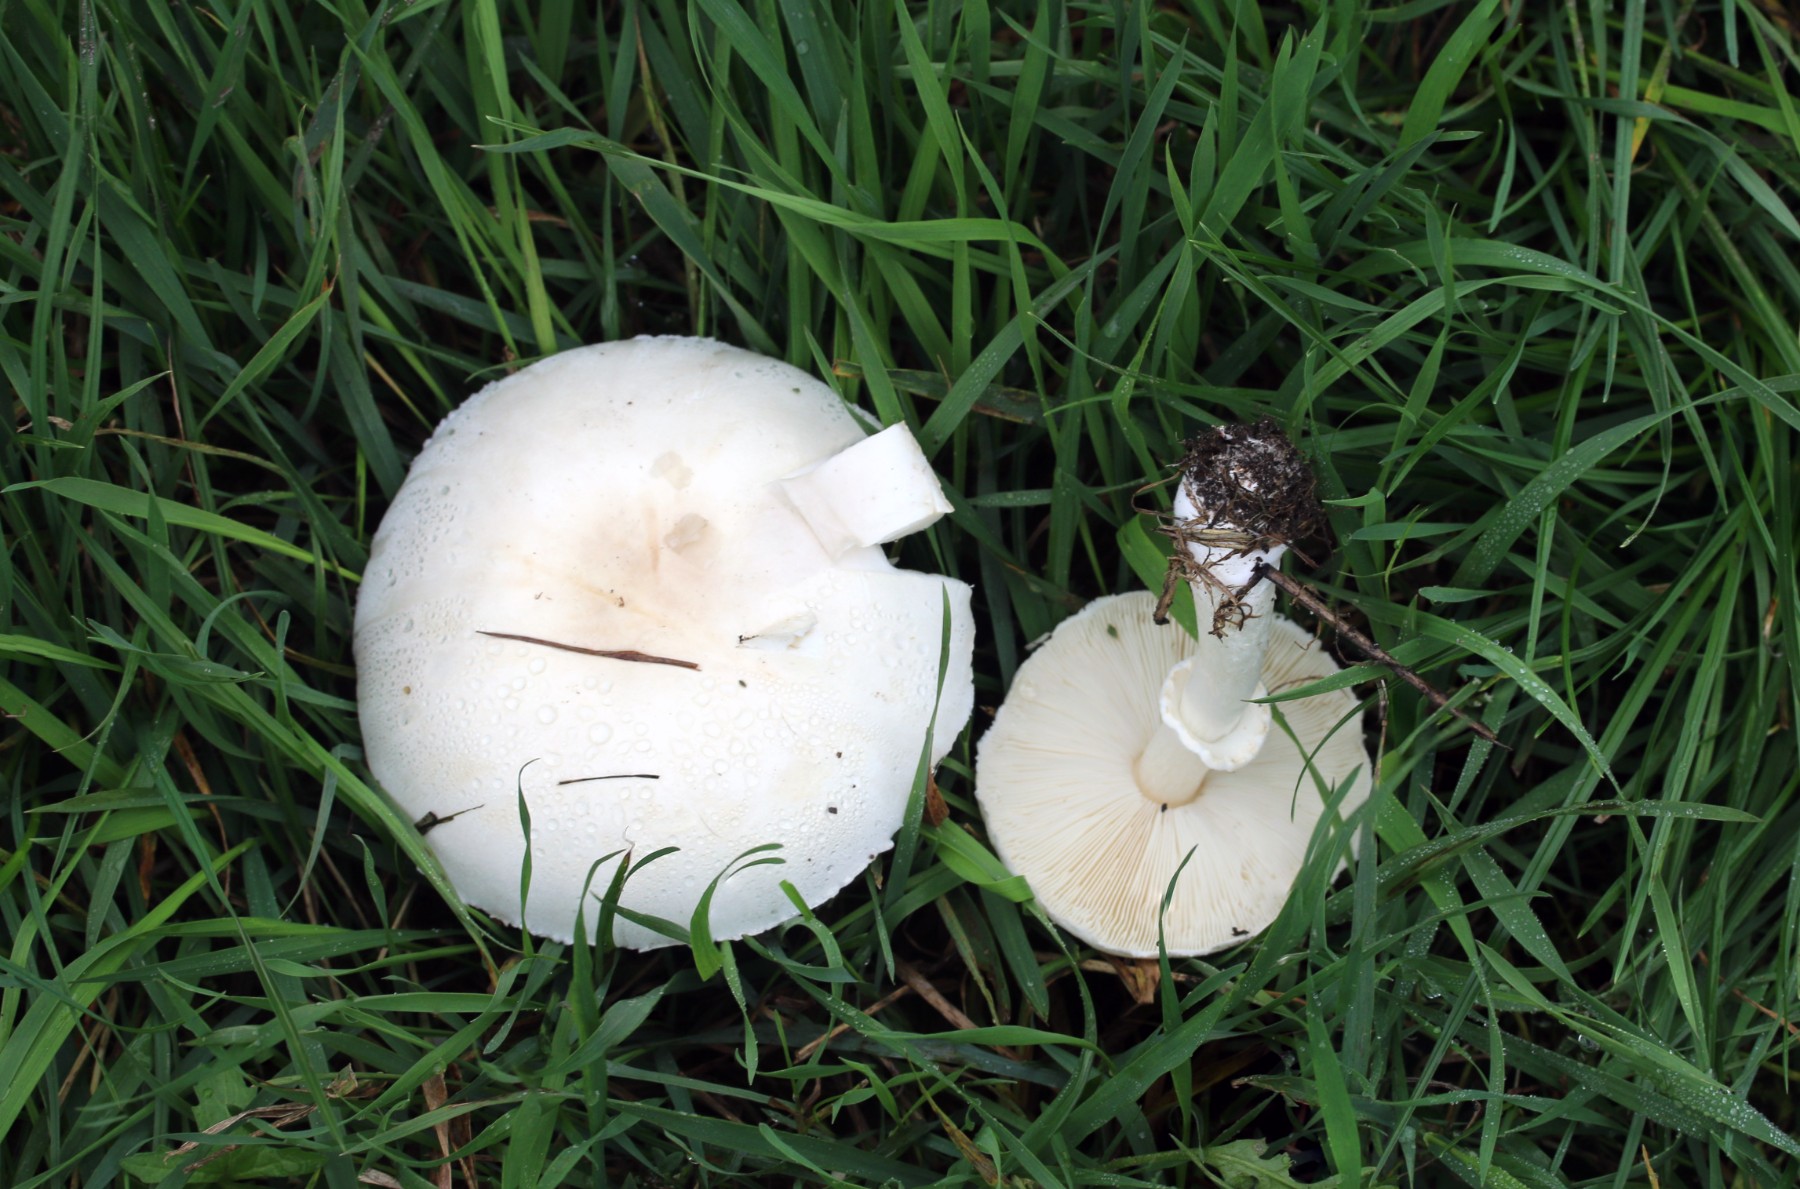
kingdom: Fungi
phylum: Basidiomycota
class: Agaricomycetes
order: Agaricales
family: Agaricaceae
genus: Leucoagaricus
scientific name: Leucoagaricus leucothites
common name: rosabladet silkehat
